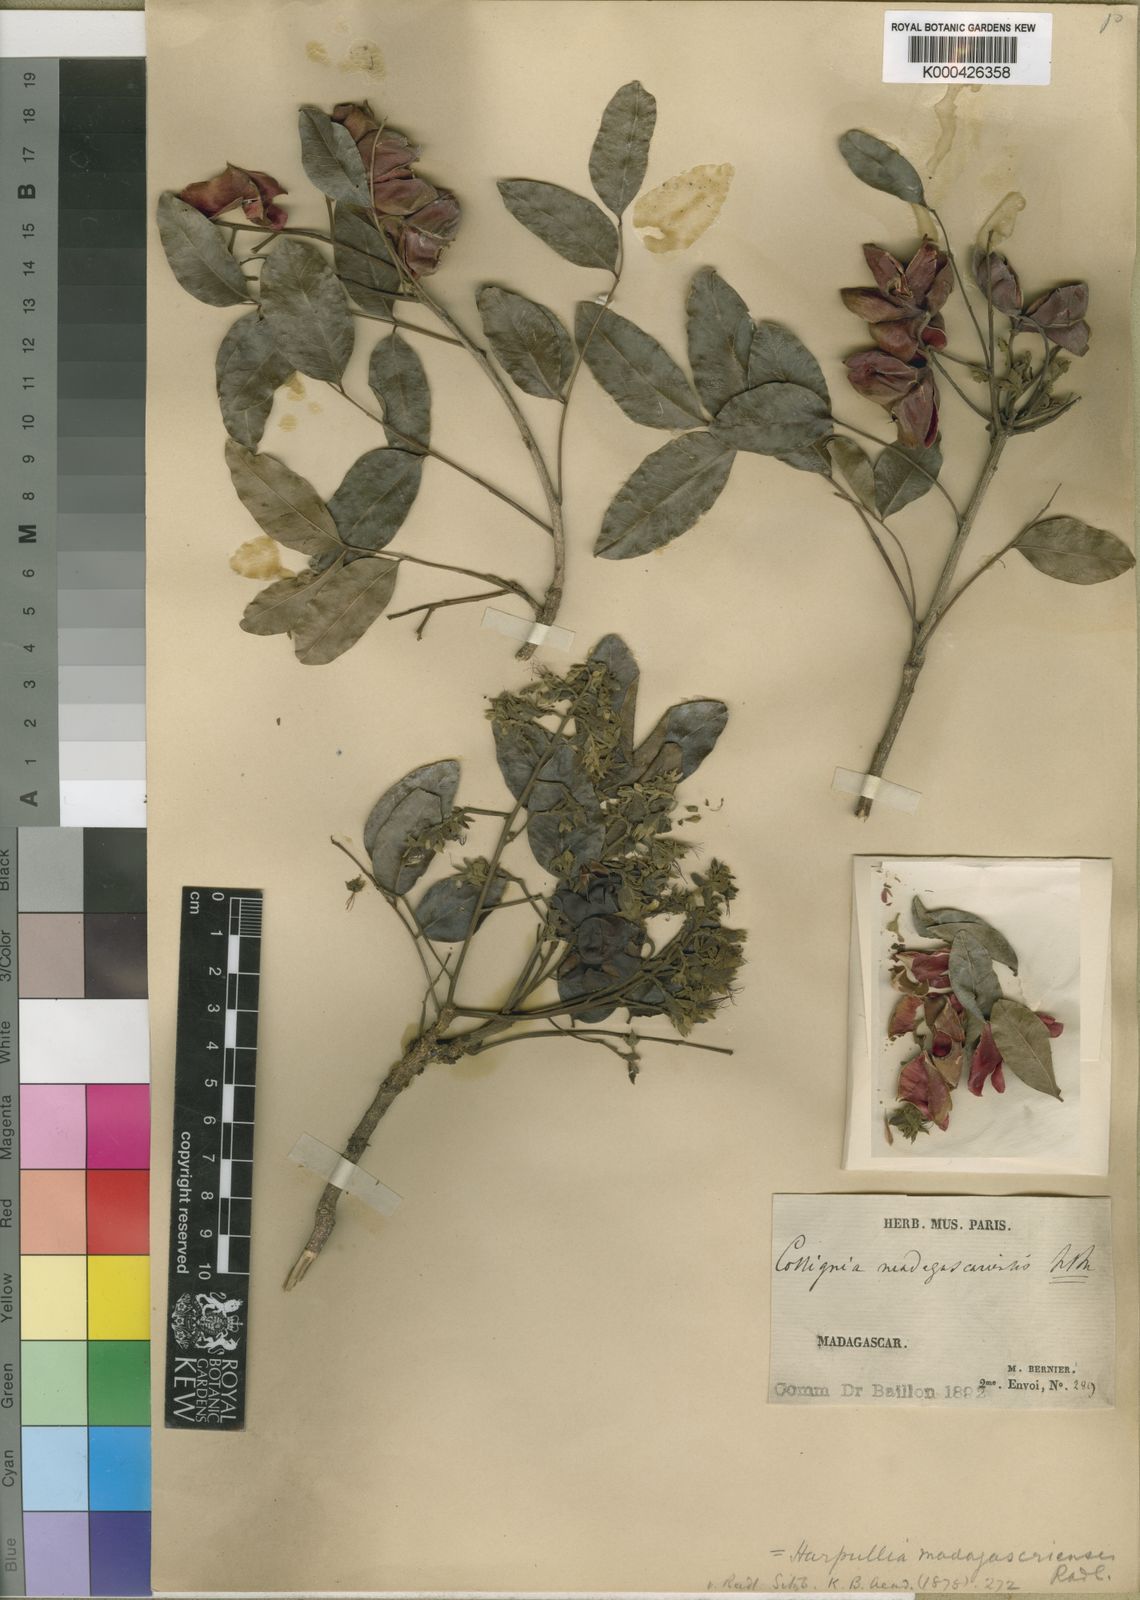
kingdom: Plantae
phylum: Tracheophyta
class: Magnoliopsida
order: Sapindales
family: Sapindaceae
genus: Majidea
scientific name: Majidea zanguebarica
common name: Velvet-seed
